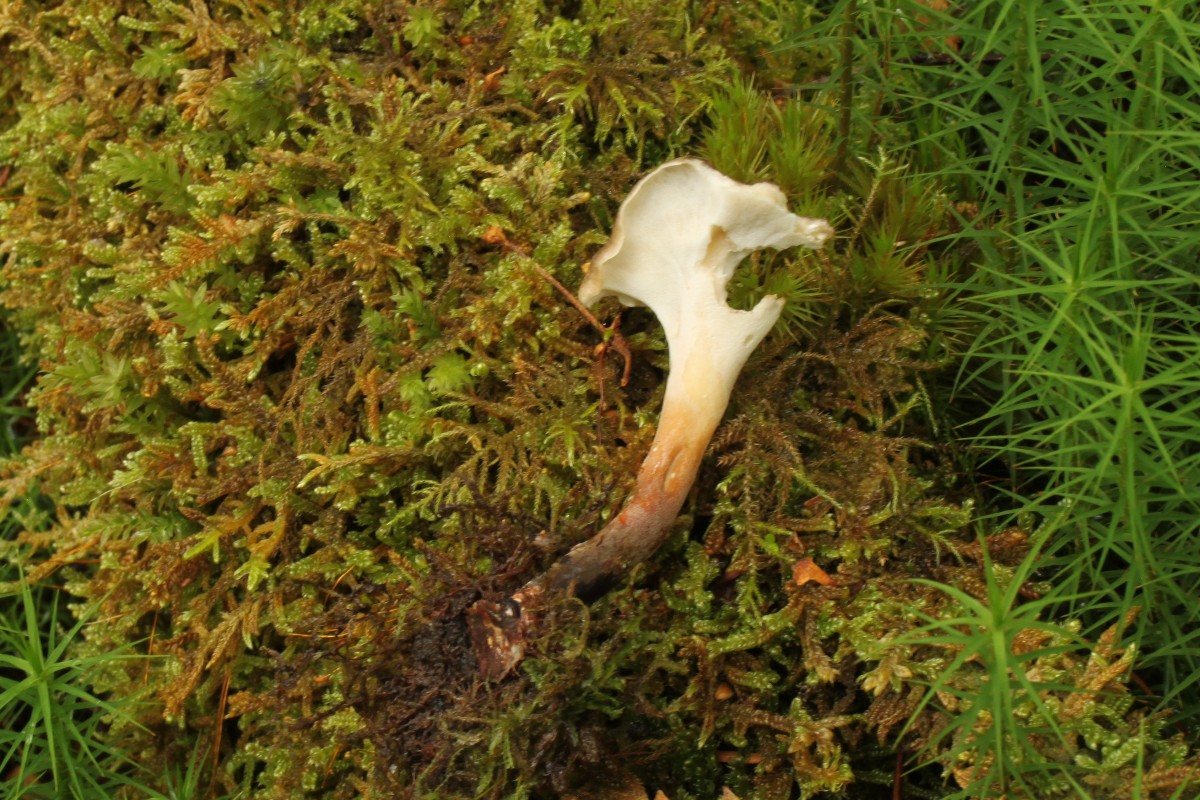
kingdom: Fungi
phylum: Basidiomycota
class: Agaricomycetes
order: Polyporales
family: Polyporaceae
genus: Picipes
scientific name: Picipes tubaeformis
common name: trompet-stilkporesvamp
